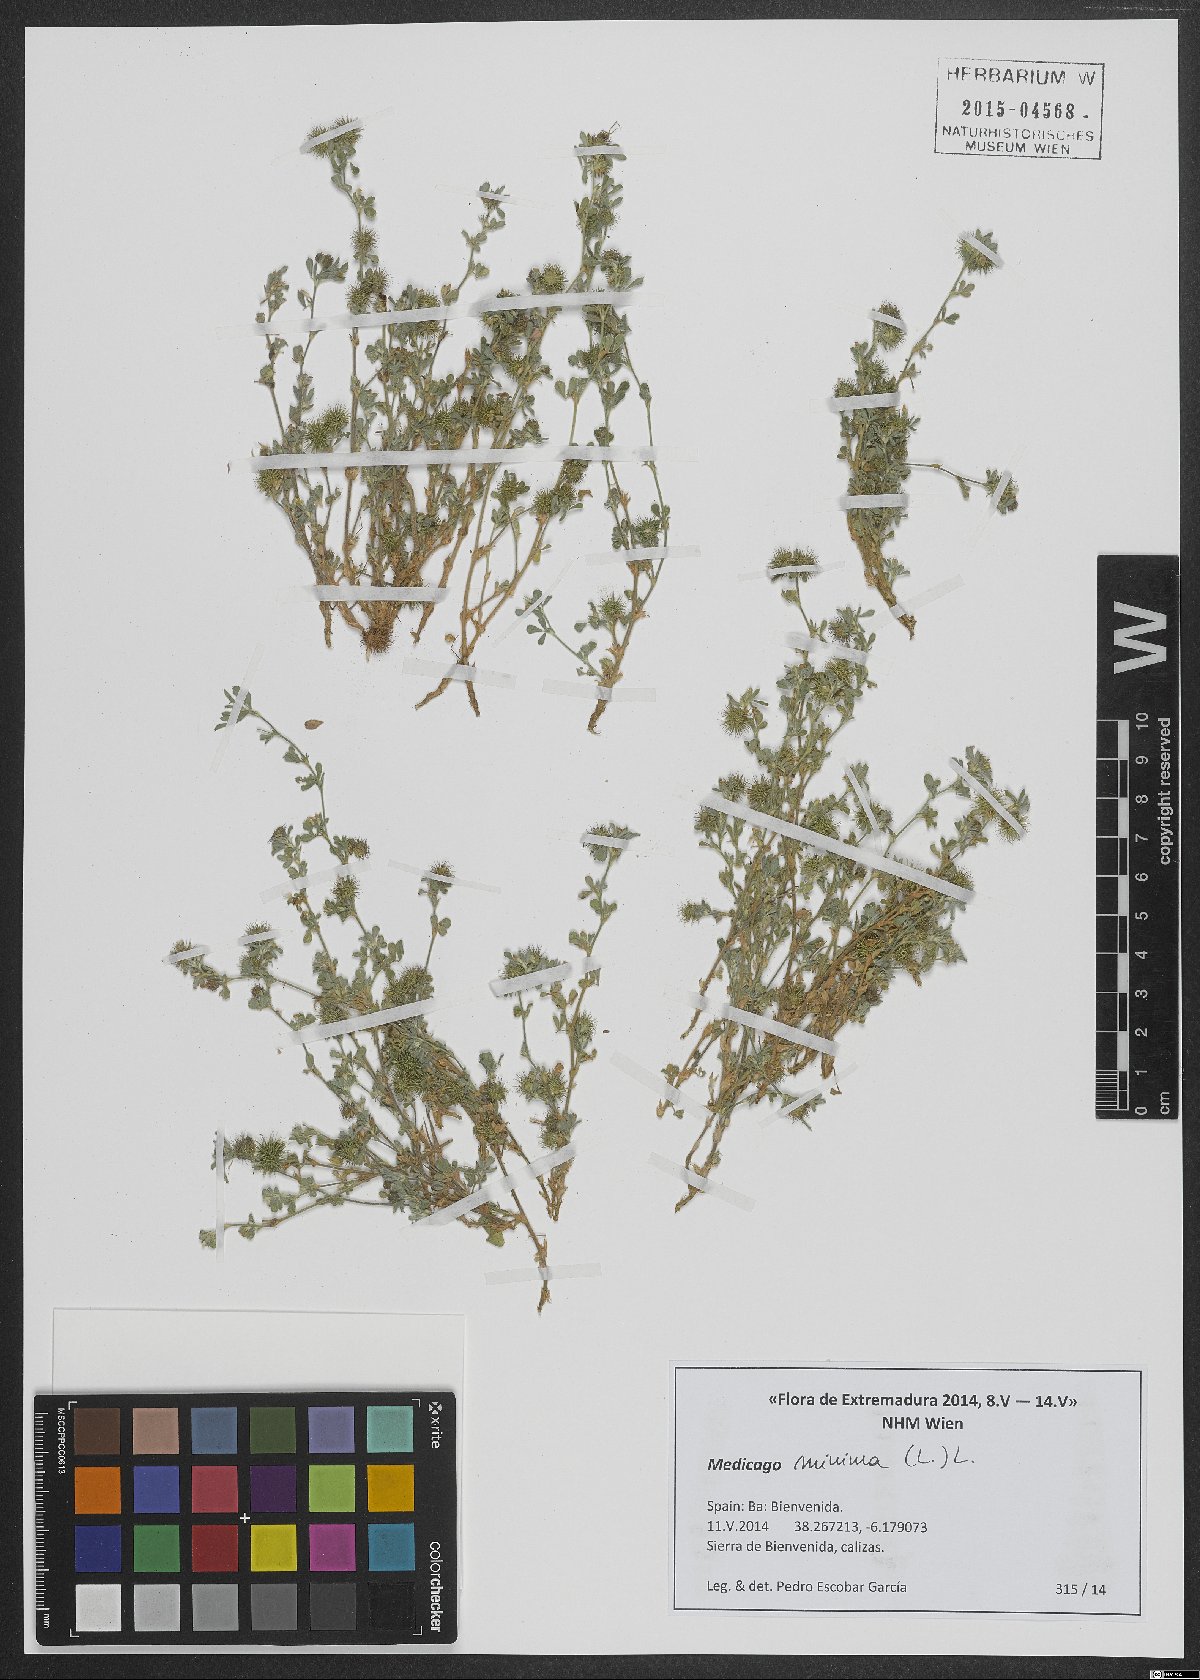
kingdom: Plantae
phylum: Tracheophyta
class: Magnoliopsida
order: Fabales
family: Fabaceae
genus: Medicago
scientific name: Medicago minima
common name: Little bur-clover
